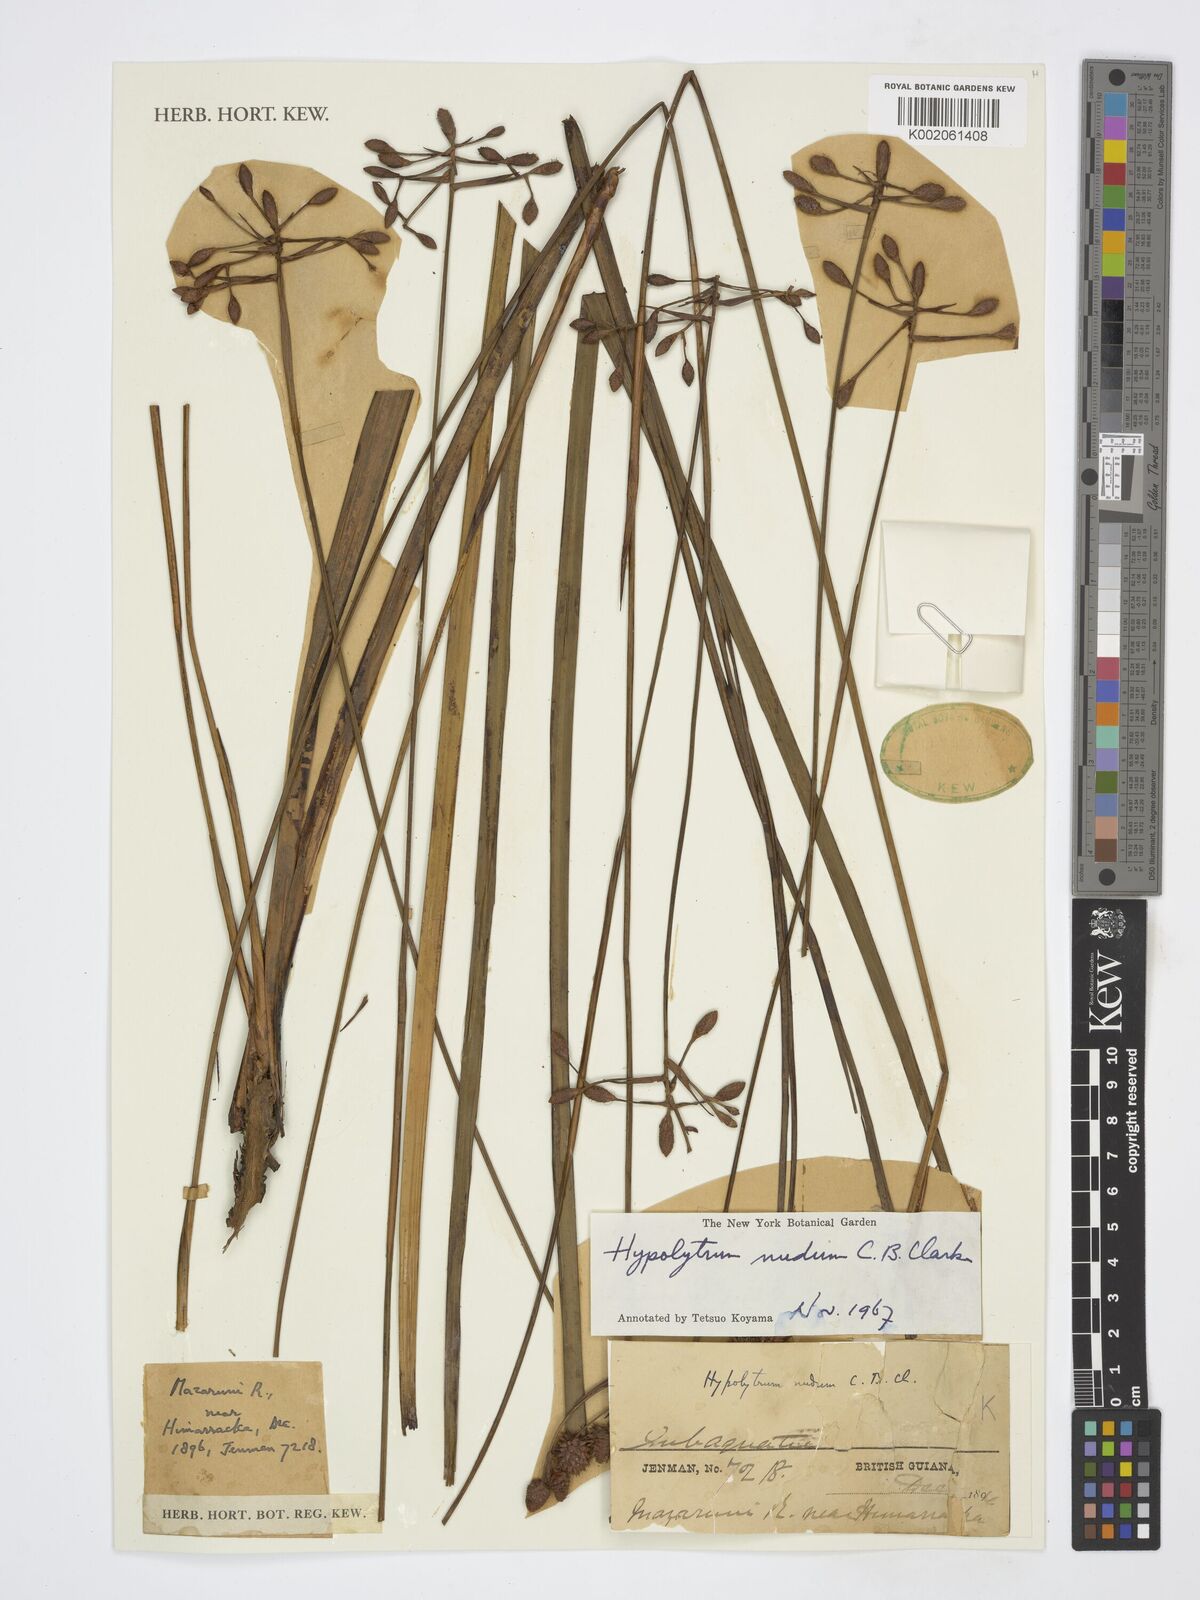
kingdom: Plantae
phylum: Tracheophyta
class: Liliopsida
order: Poales
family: Cyperaceae
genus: Hypolytrum
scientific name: Hypolytrum nudum
